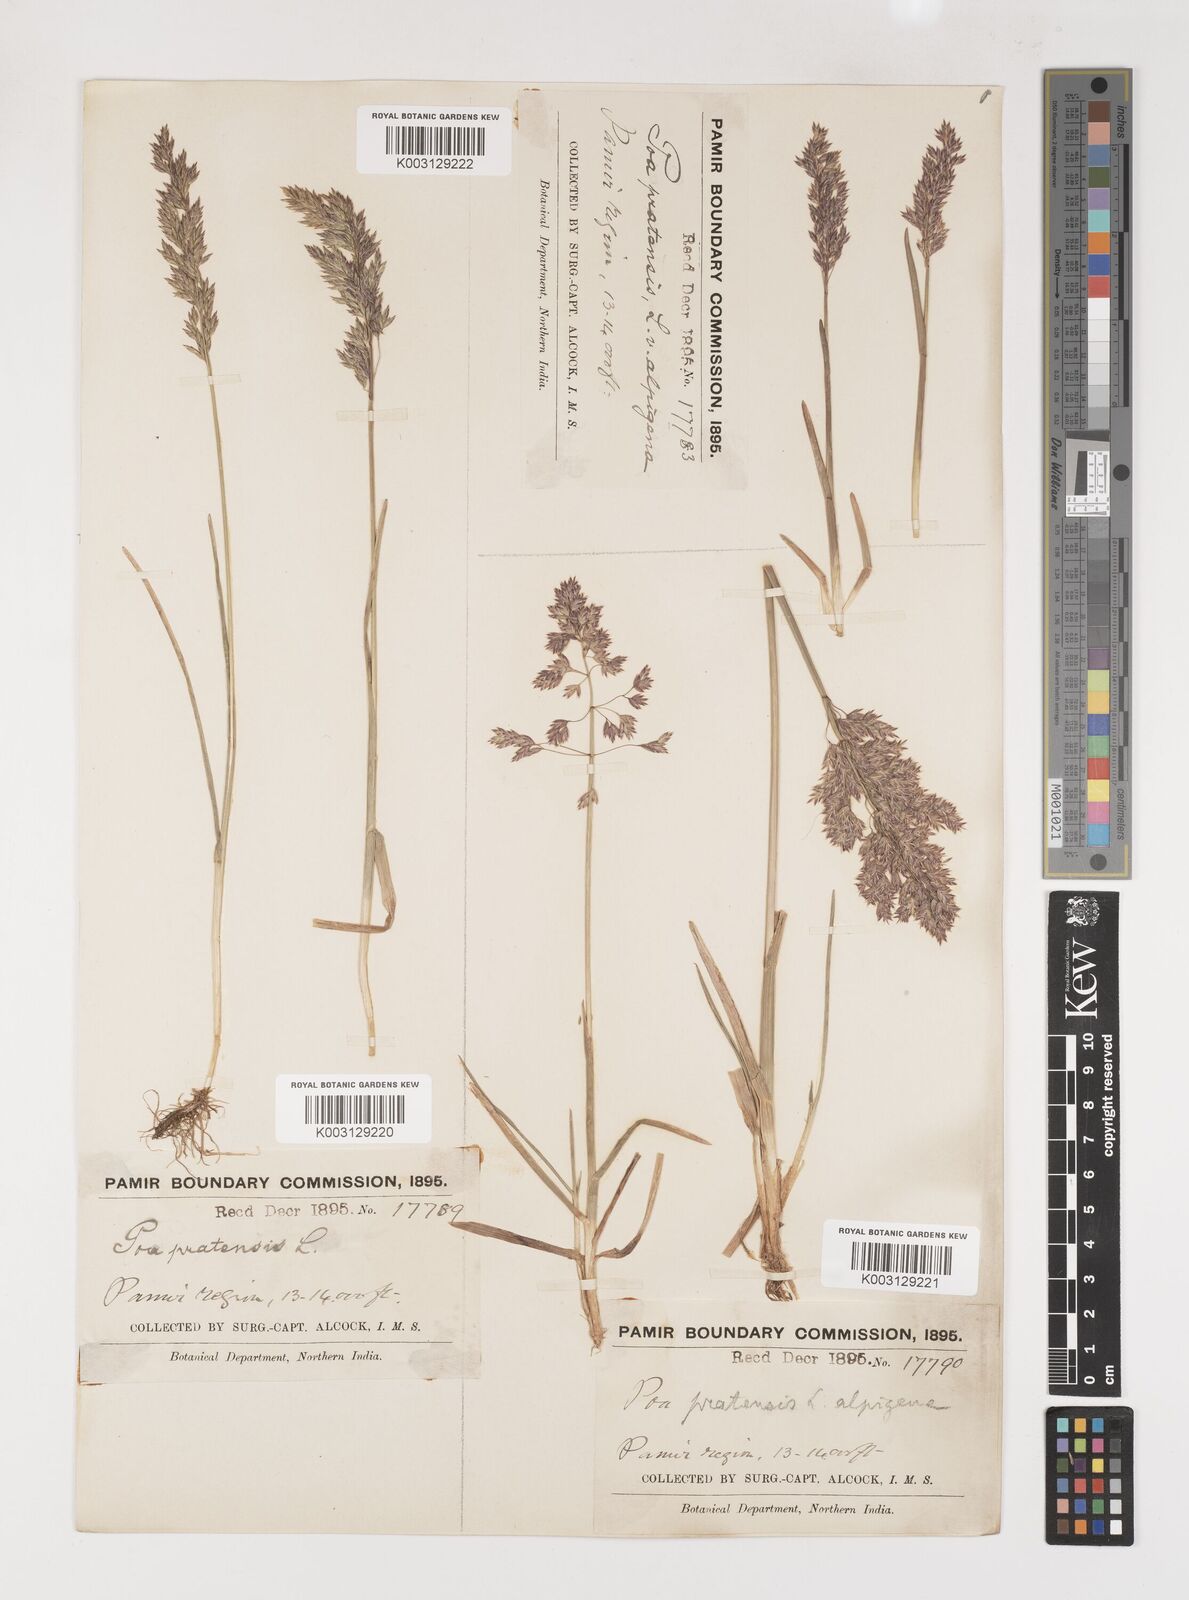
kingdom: Plantae
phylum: Tracheophyta
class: Liliopsida
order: Poales
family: Poaceae
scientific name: Poaceae
